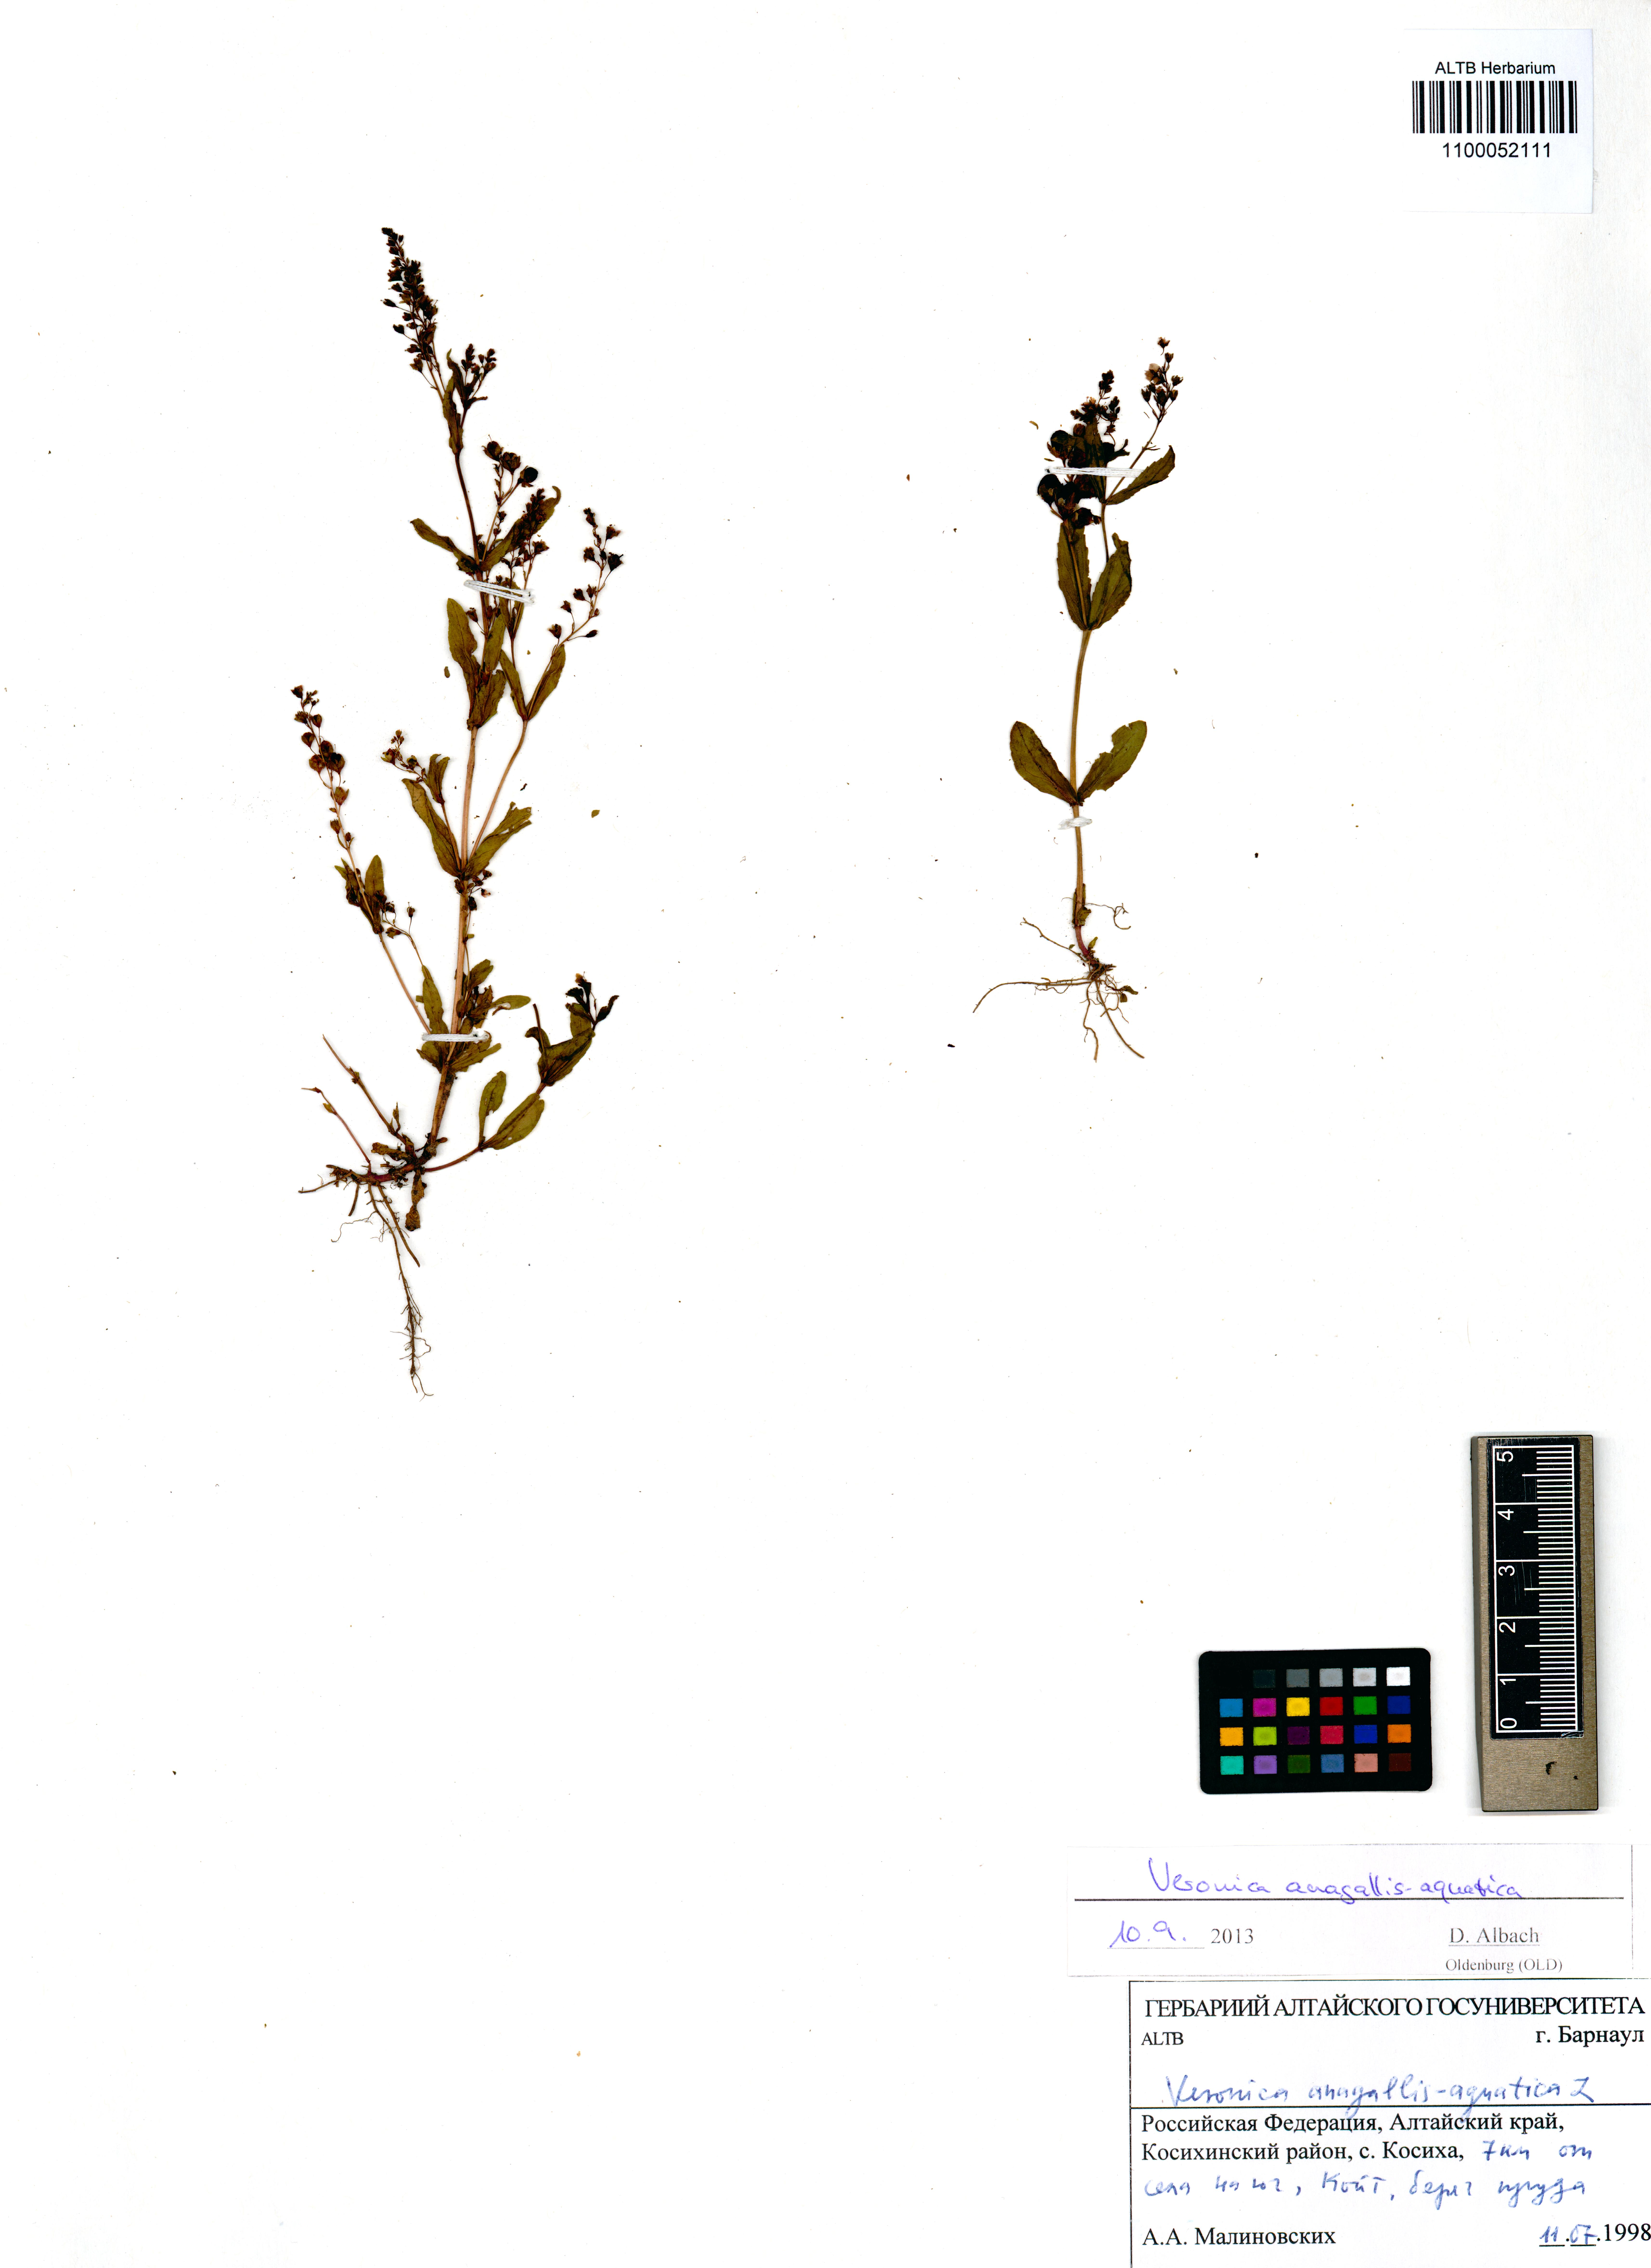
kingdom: Plantae
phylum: Tracheophyta
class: Magnoliopsida
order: Lamiales
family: Plantaginaceae
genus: Veronica
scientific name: Veronica anagallis-aquatica
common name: Water speedwell
